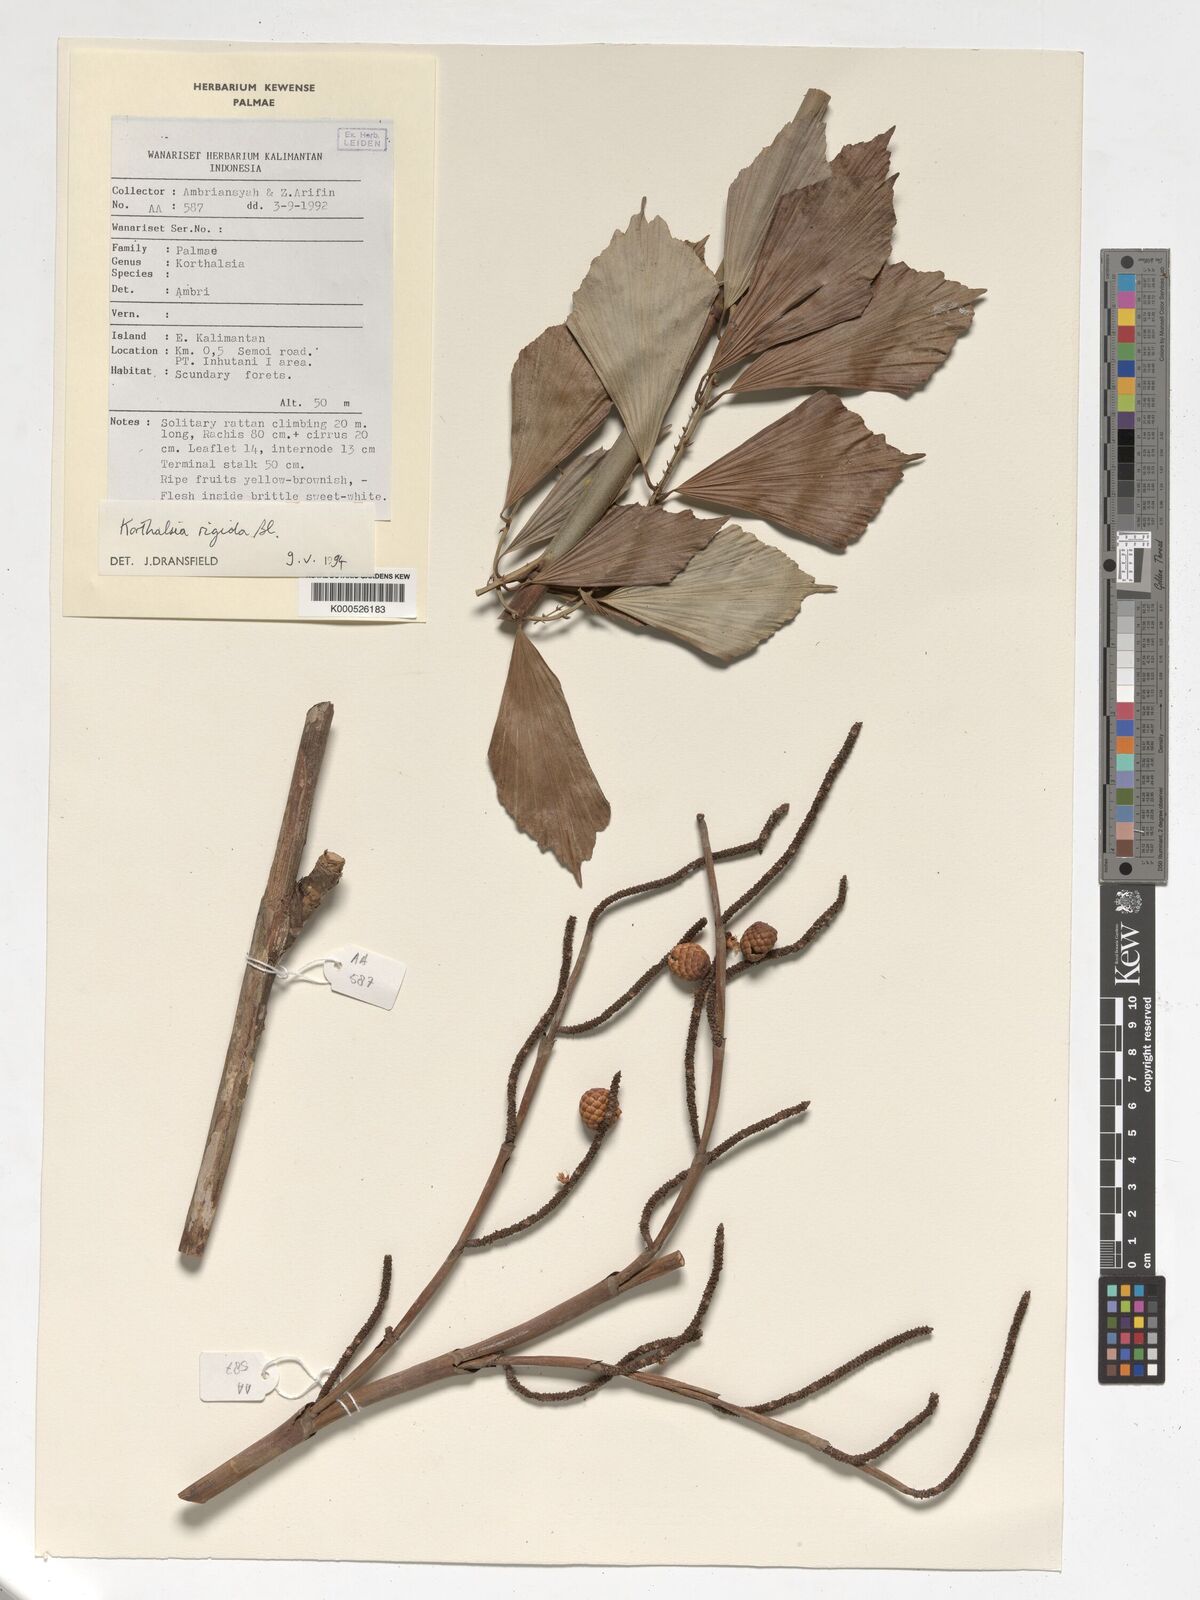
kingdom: Plantae
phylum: Tracheophyta
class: Liliopsida
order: Arecales
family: Arecaceae
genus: Korthalsia
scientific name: Korthalsia rigida
